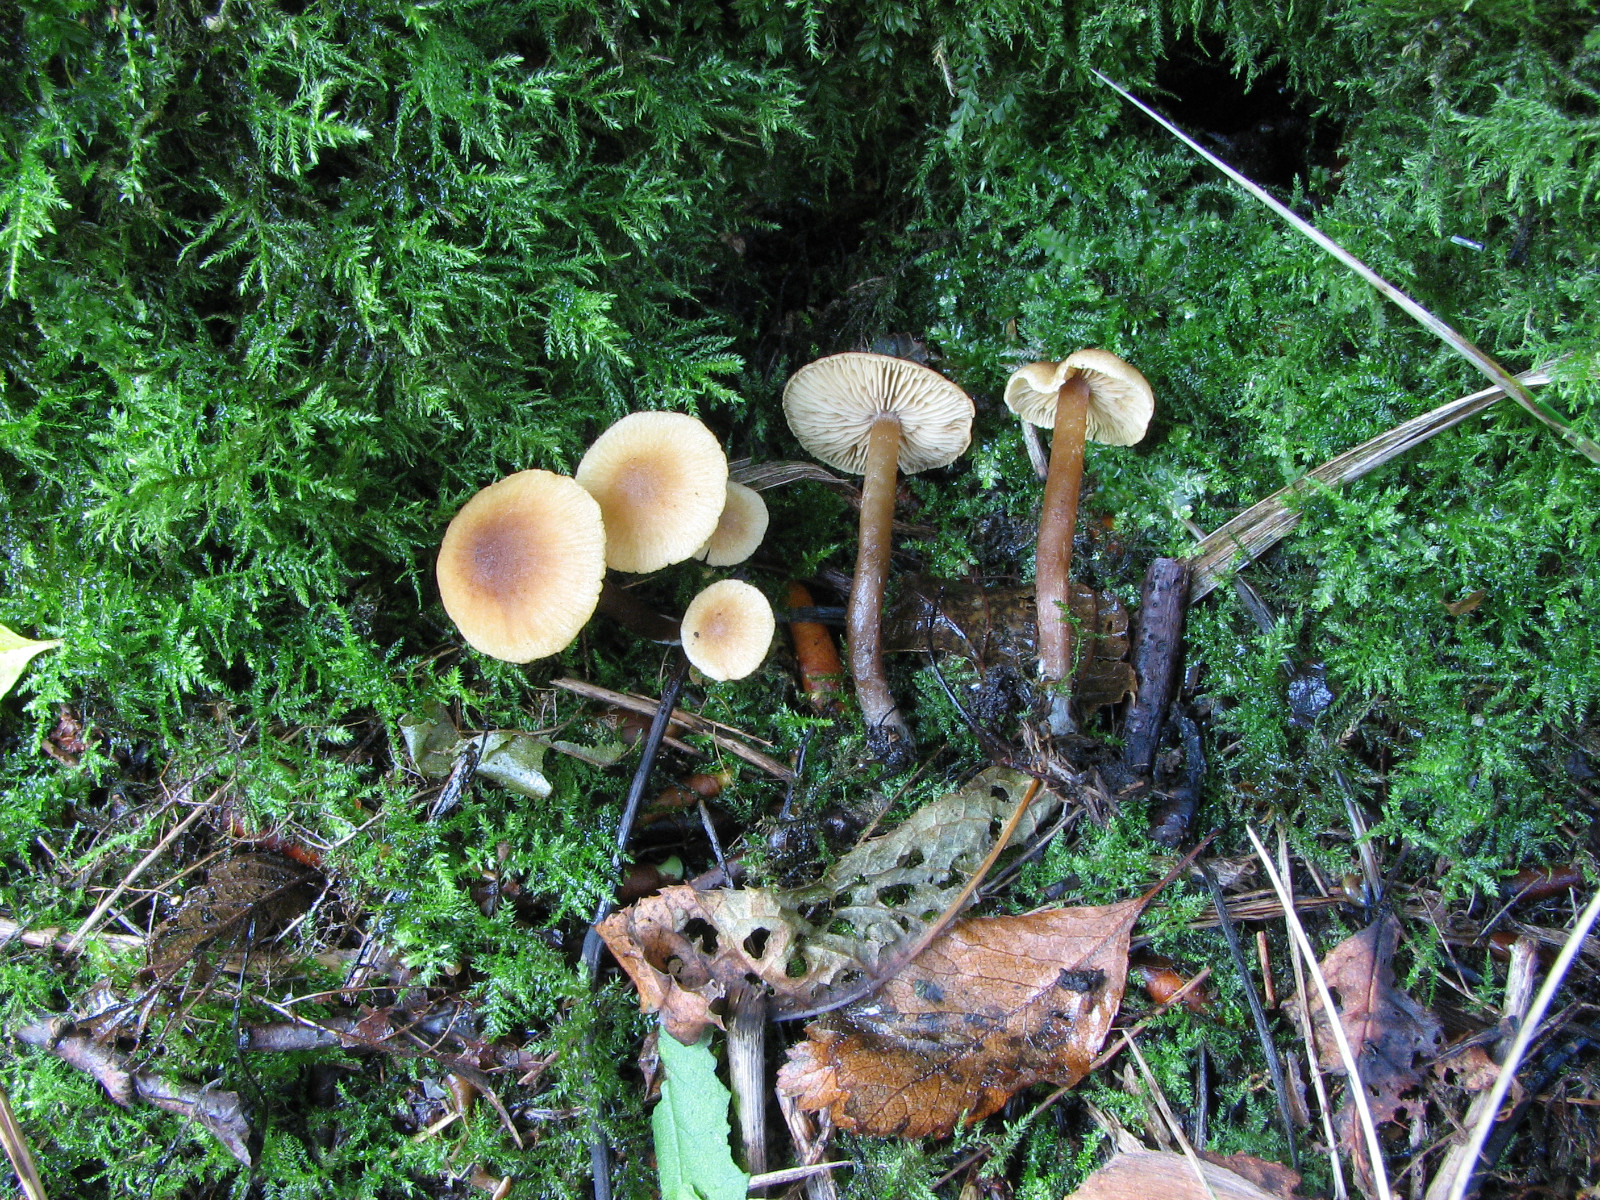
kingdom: Fungi
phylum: Basidiomycota
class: Agaricomycetes
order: Agaricales
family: Hymenogastraceae
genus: Naucoria
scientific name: Naucoria escharioides
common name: lys elle-knaphat
